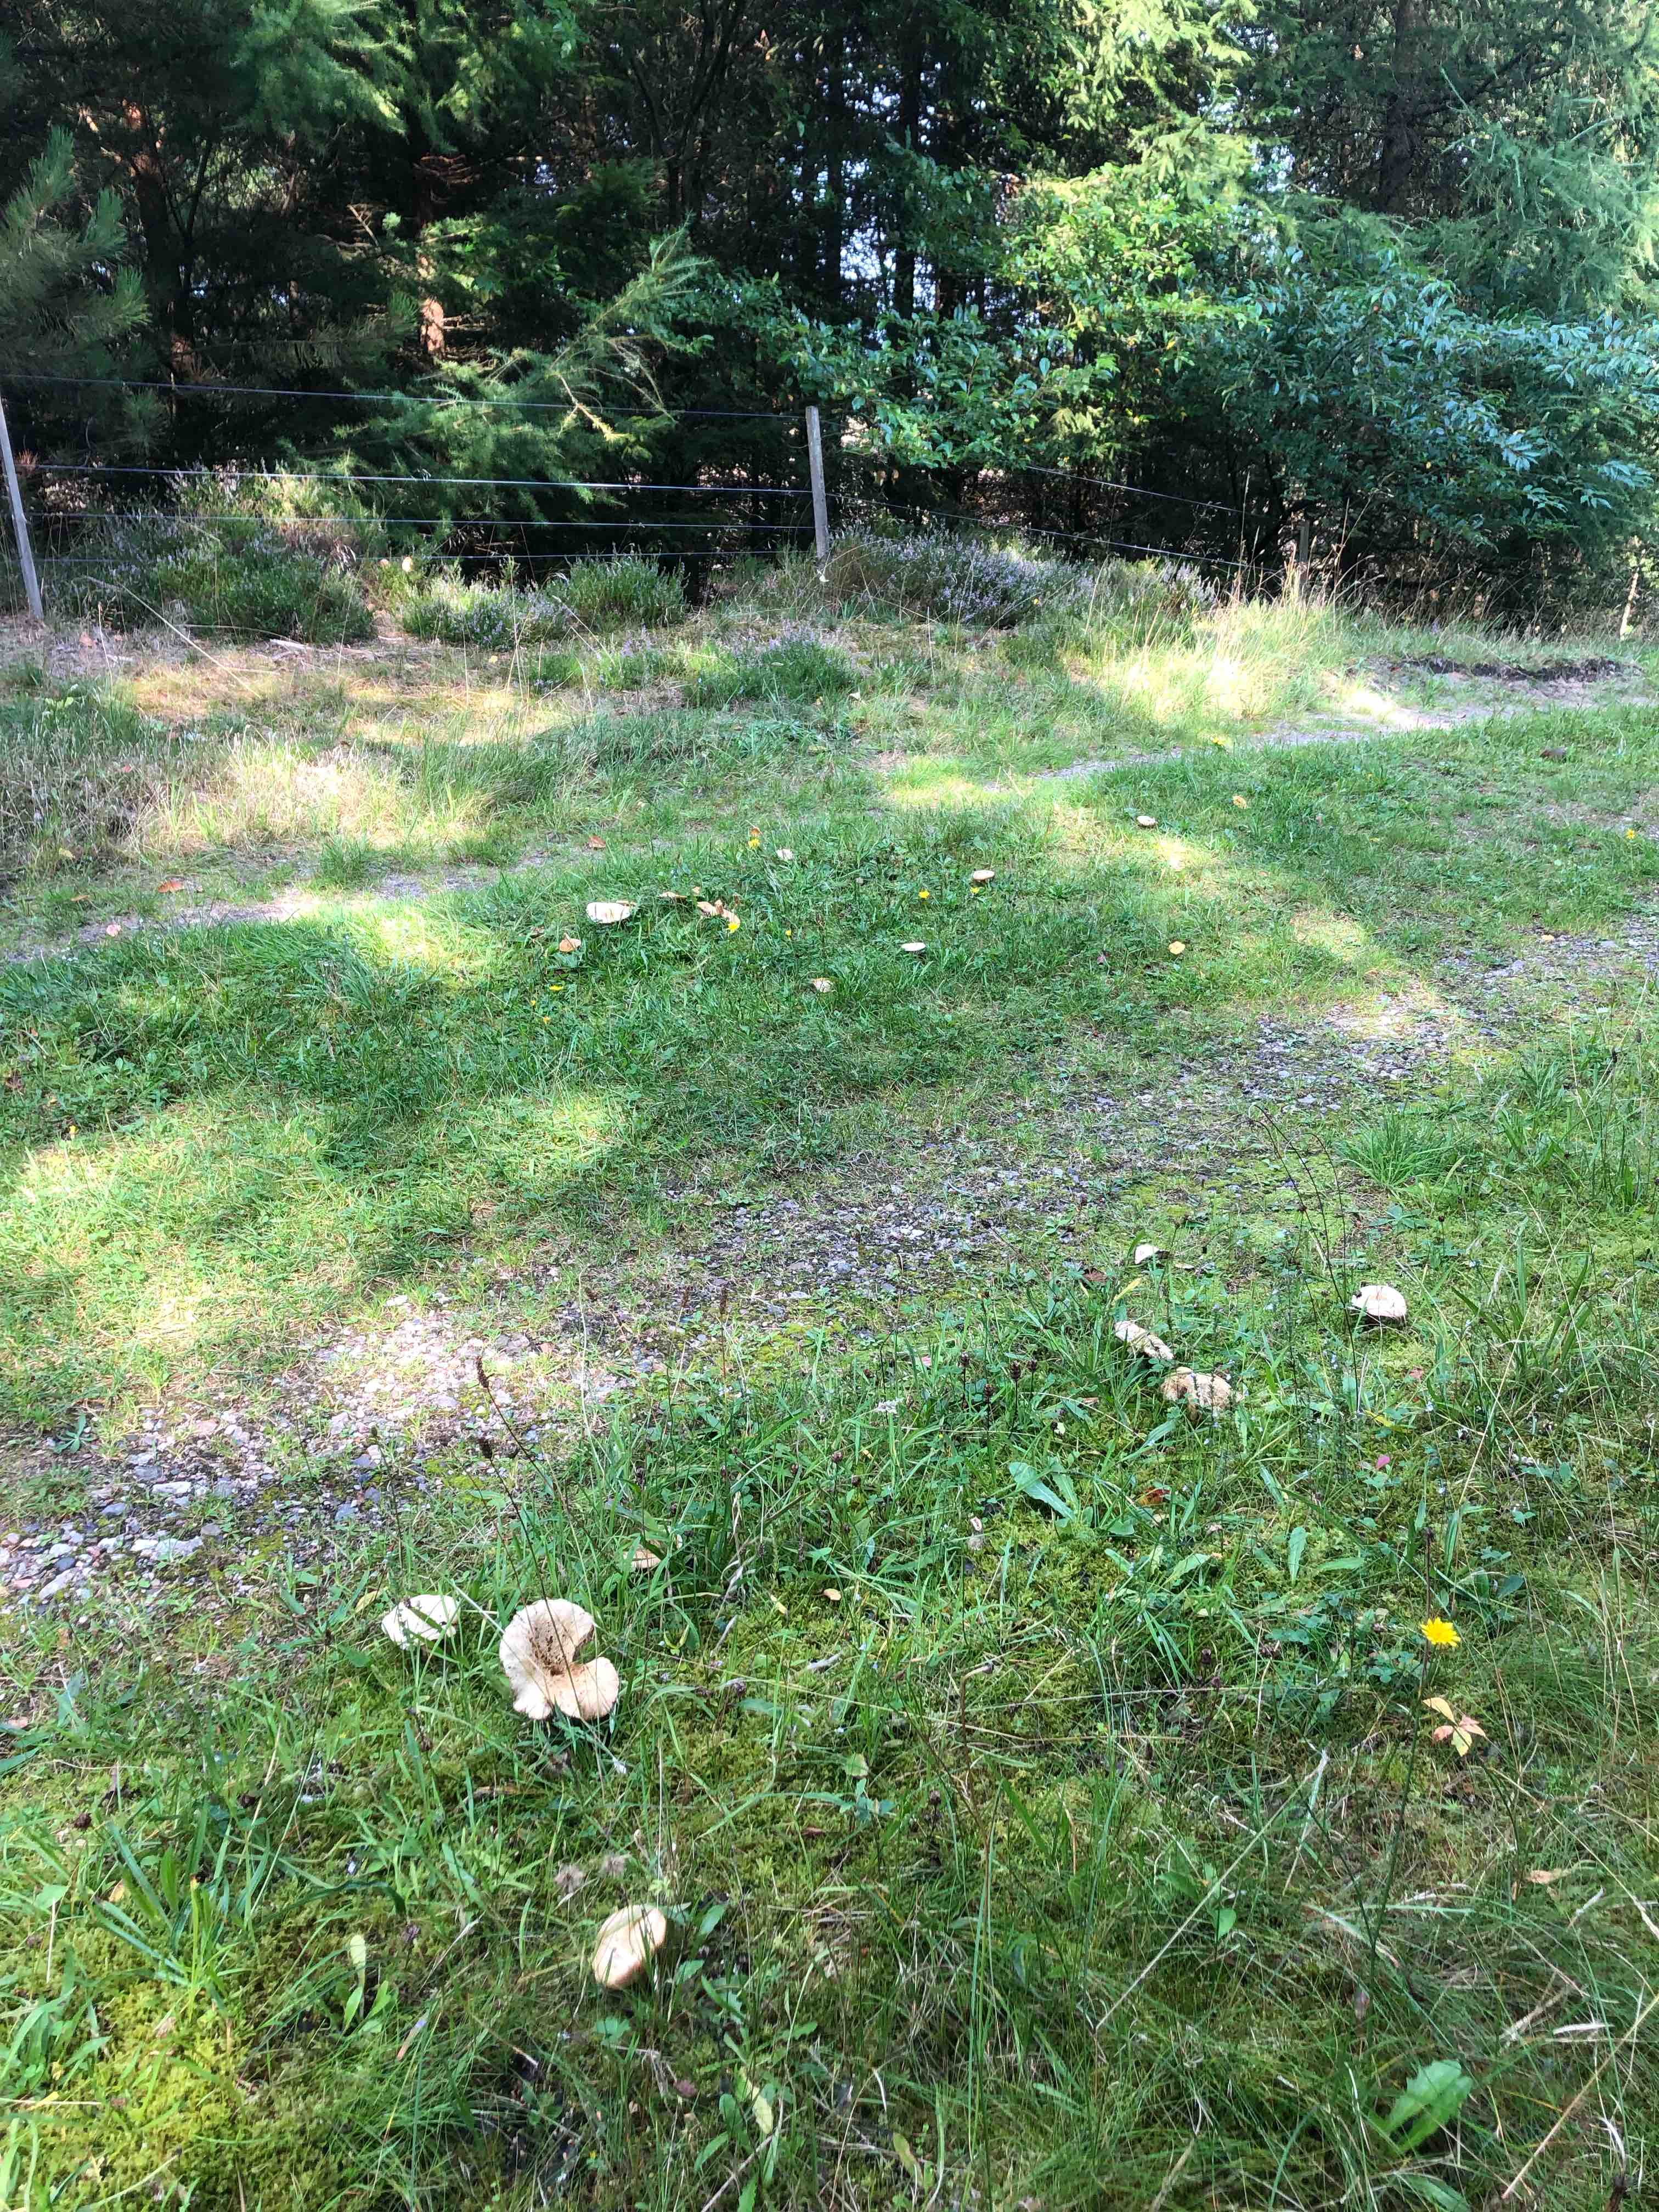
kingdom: Fungi
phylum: Basidiomycota
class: Agaricomycetes
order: Russulales
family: Russulaceae
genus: Lactarius
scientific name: Lactarius deterrimus
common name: gran-mælkehat
